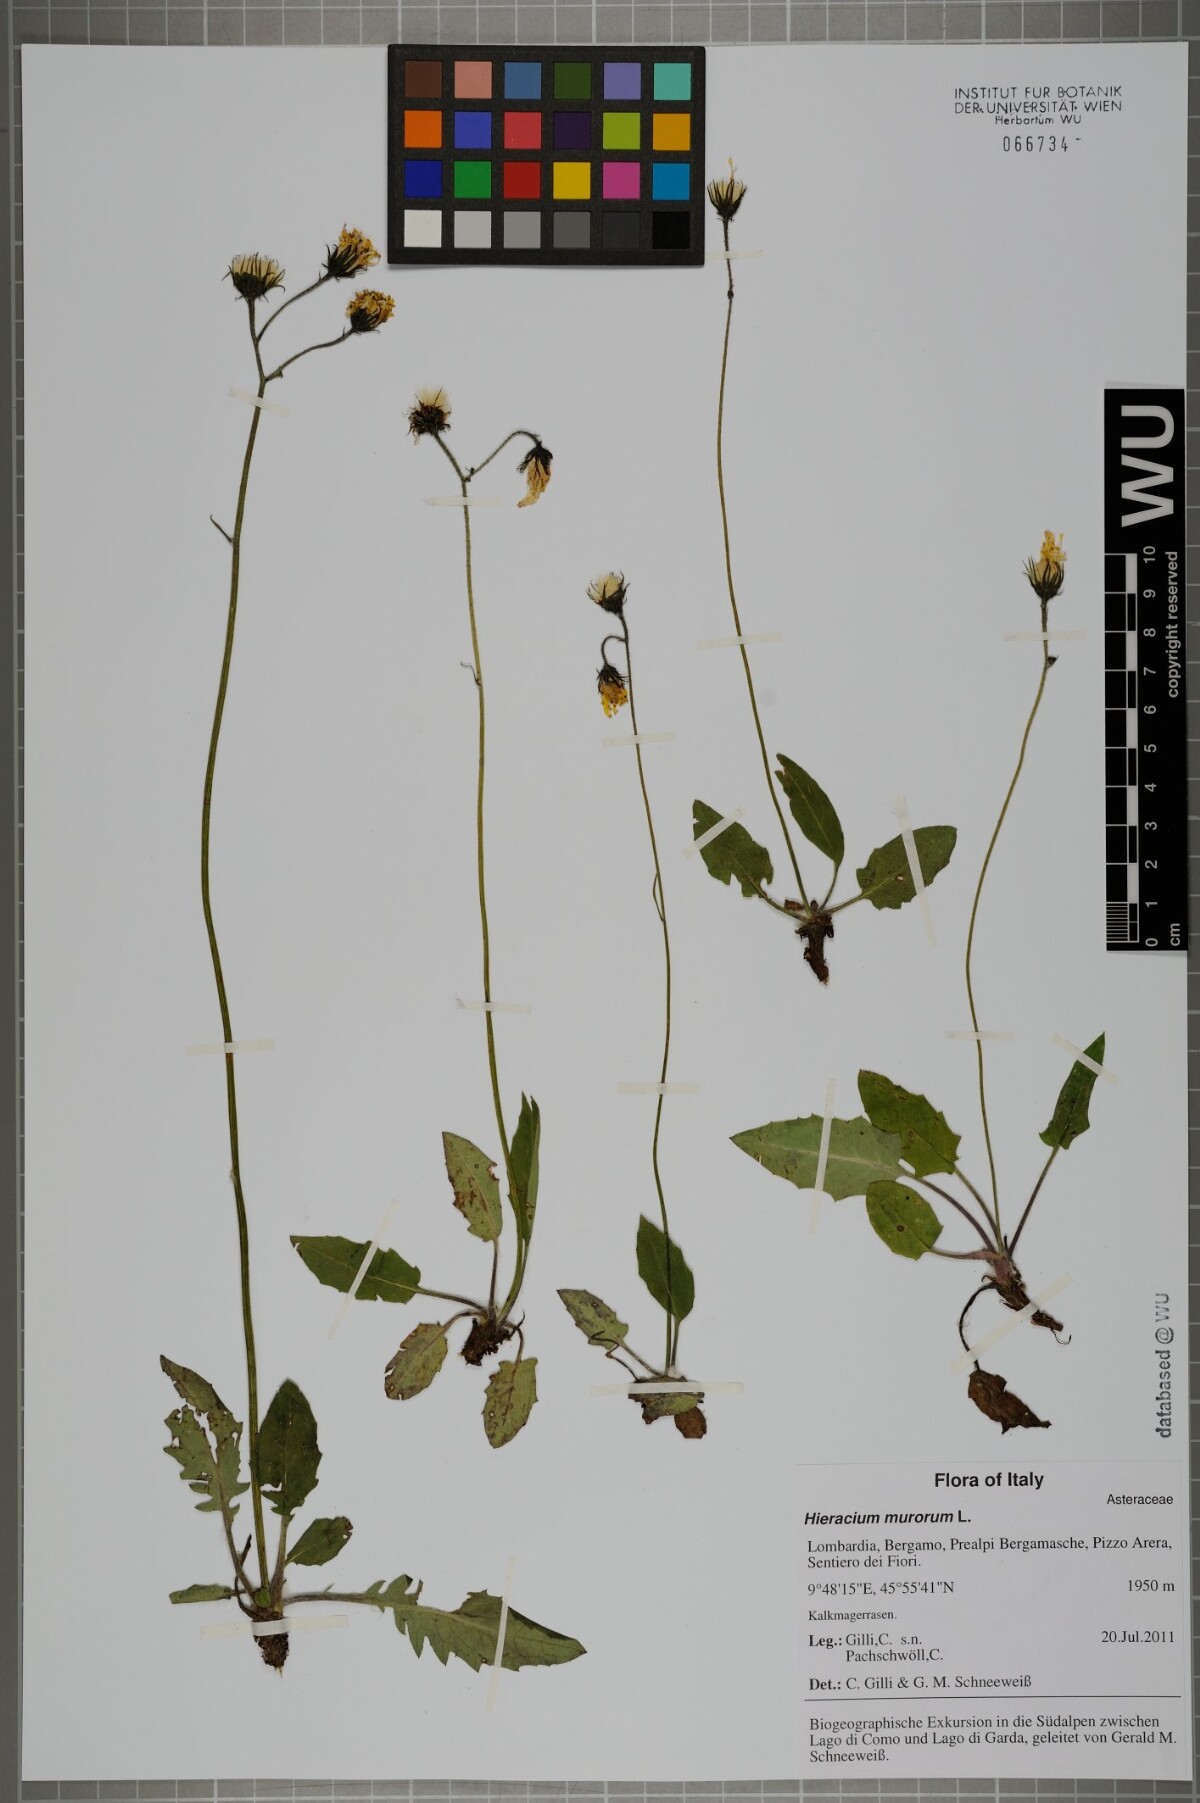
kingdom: Plantae
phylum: Tracheophyta
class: Magnoliopsida
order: Asterales
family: Asteraceae
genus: Hieracium
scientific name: Hieracium murorum
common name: Wall hawkweed
